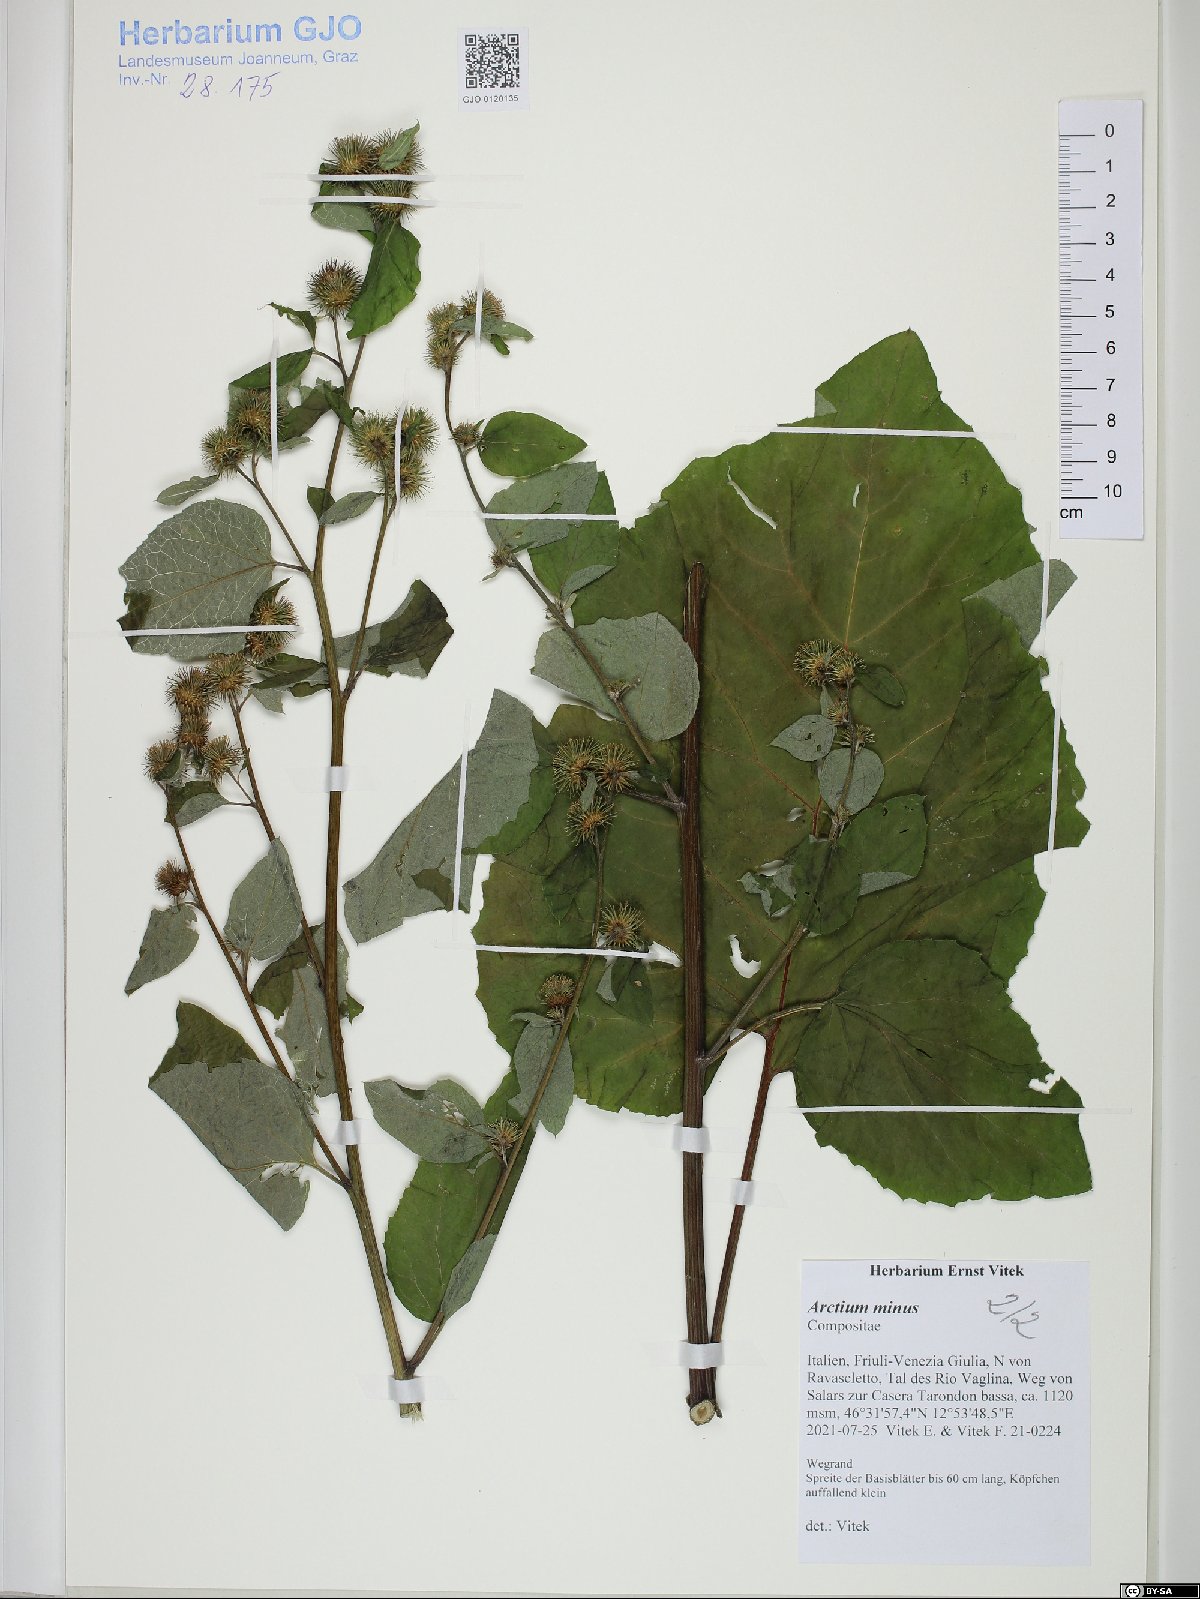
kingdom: Plantae
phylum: Tracheophyta
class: Magnoliopsida
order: Asterales
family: Asteraceae
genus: Arctium
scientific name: Arctium minus
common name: Lesser burdock
